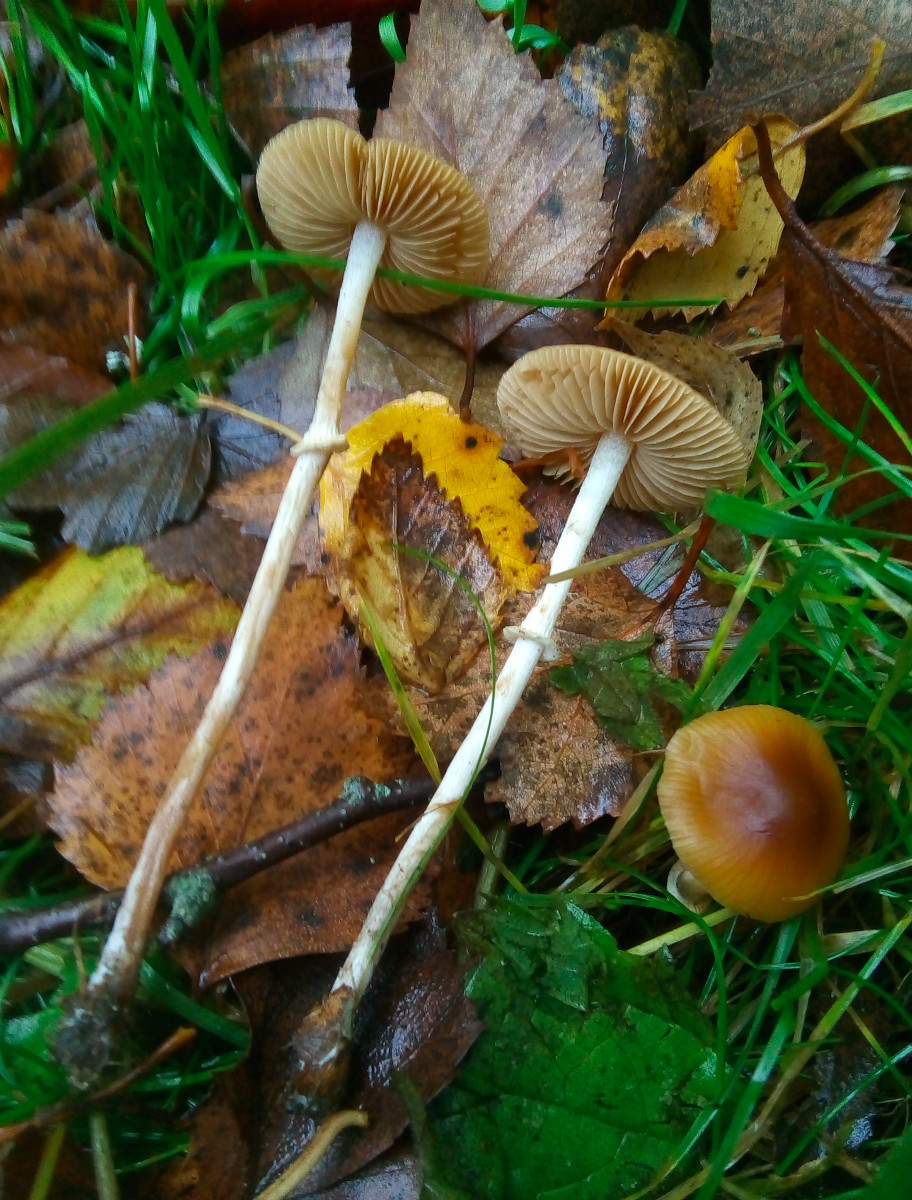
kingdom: Fungi
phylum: Basidiomycota
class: Agaricomycetes
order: Agaricales
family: Bolbitiaceae
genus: Conocybe
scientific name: Conocybe arrhenii
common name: ring-dansehat
